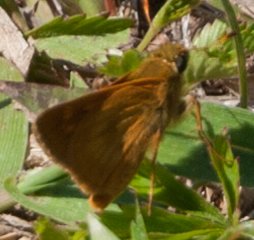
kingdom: Animalia
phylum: Arthropoda
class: Insecta
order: Lepidoptera
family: Hesperiidae
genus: Polites
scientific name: Polites
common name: Long Dash Skipper
